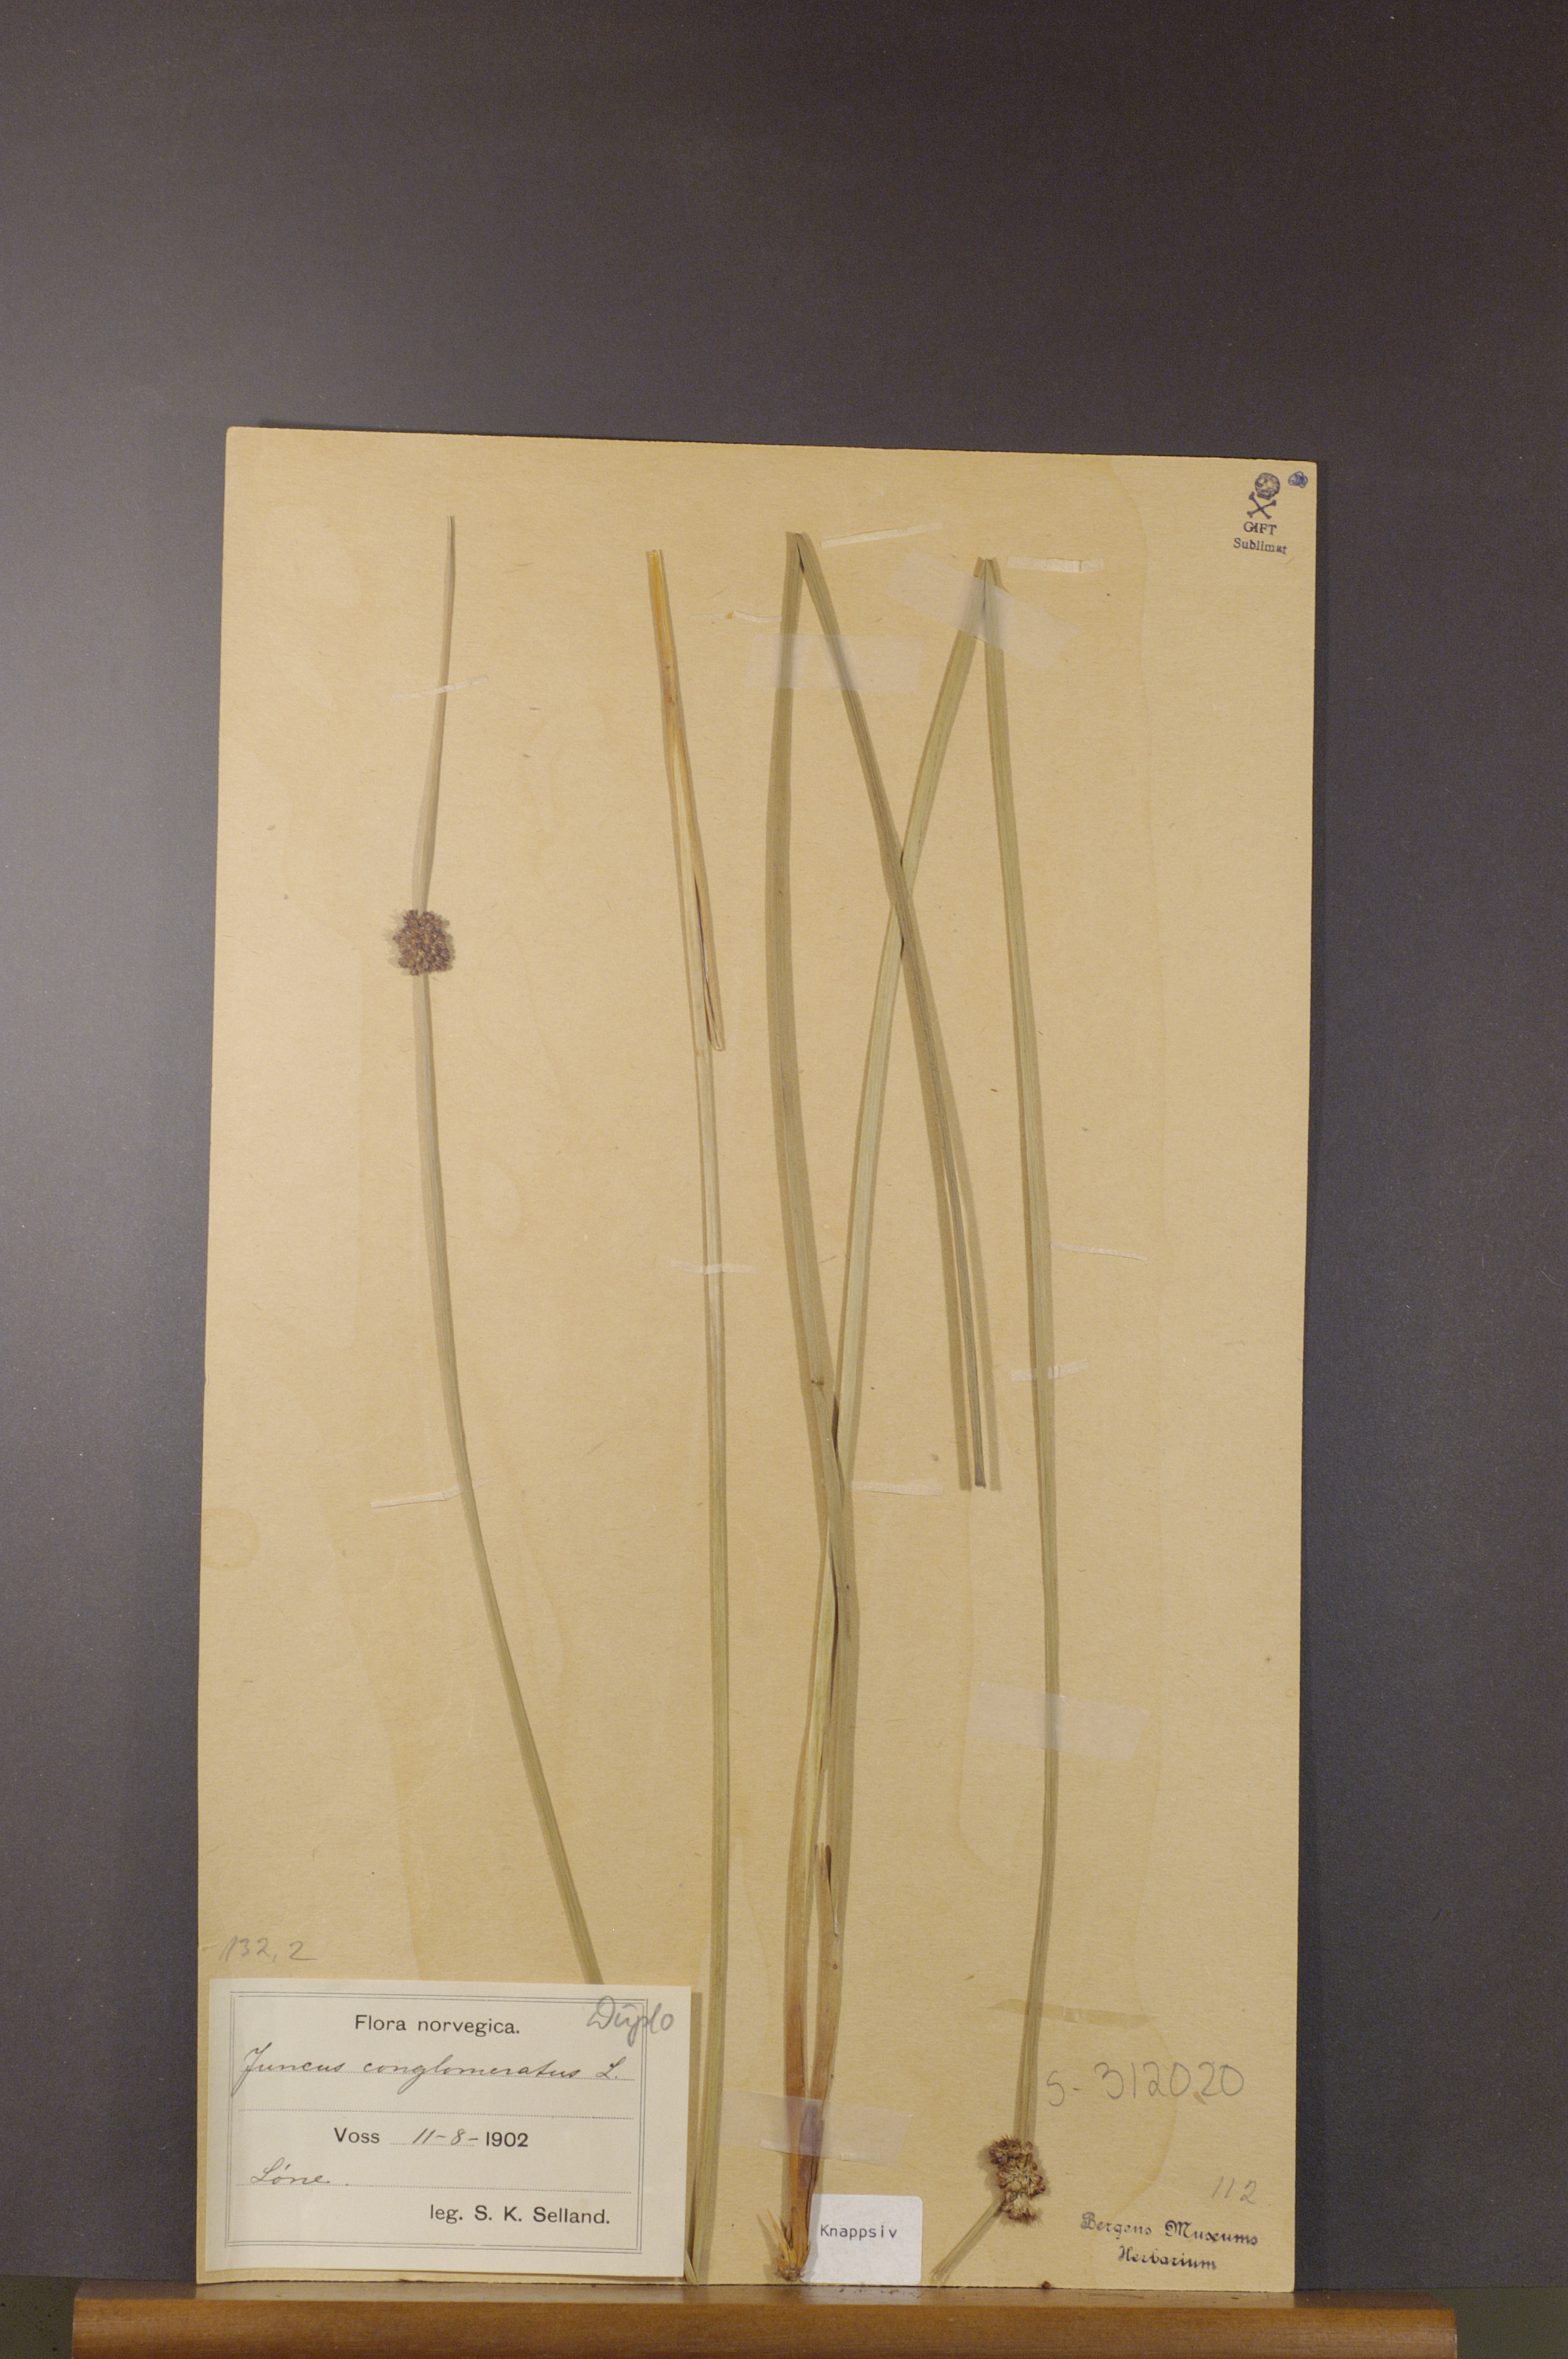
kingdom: Plantae
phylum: Tracheophyta
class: Liliopsida
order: Poales
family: Juncaceae
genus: Juncus
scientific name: Juncus conglomeratus
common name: Compact rush
